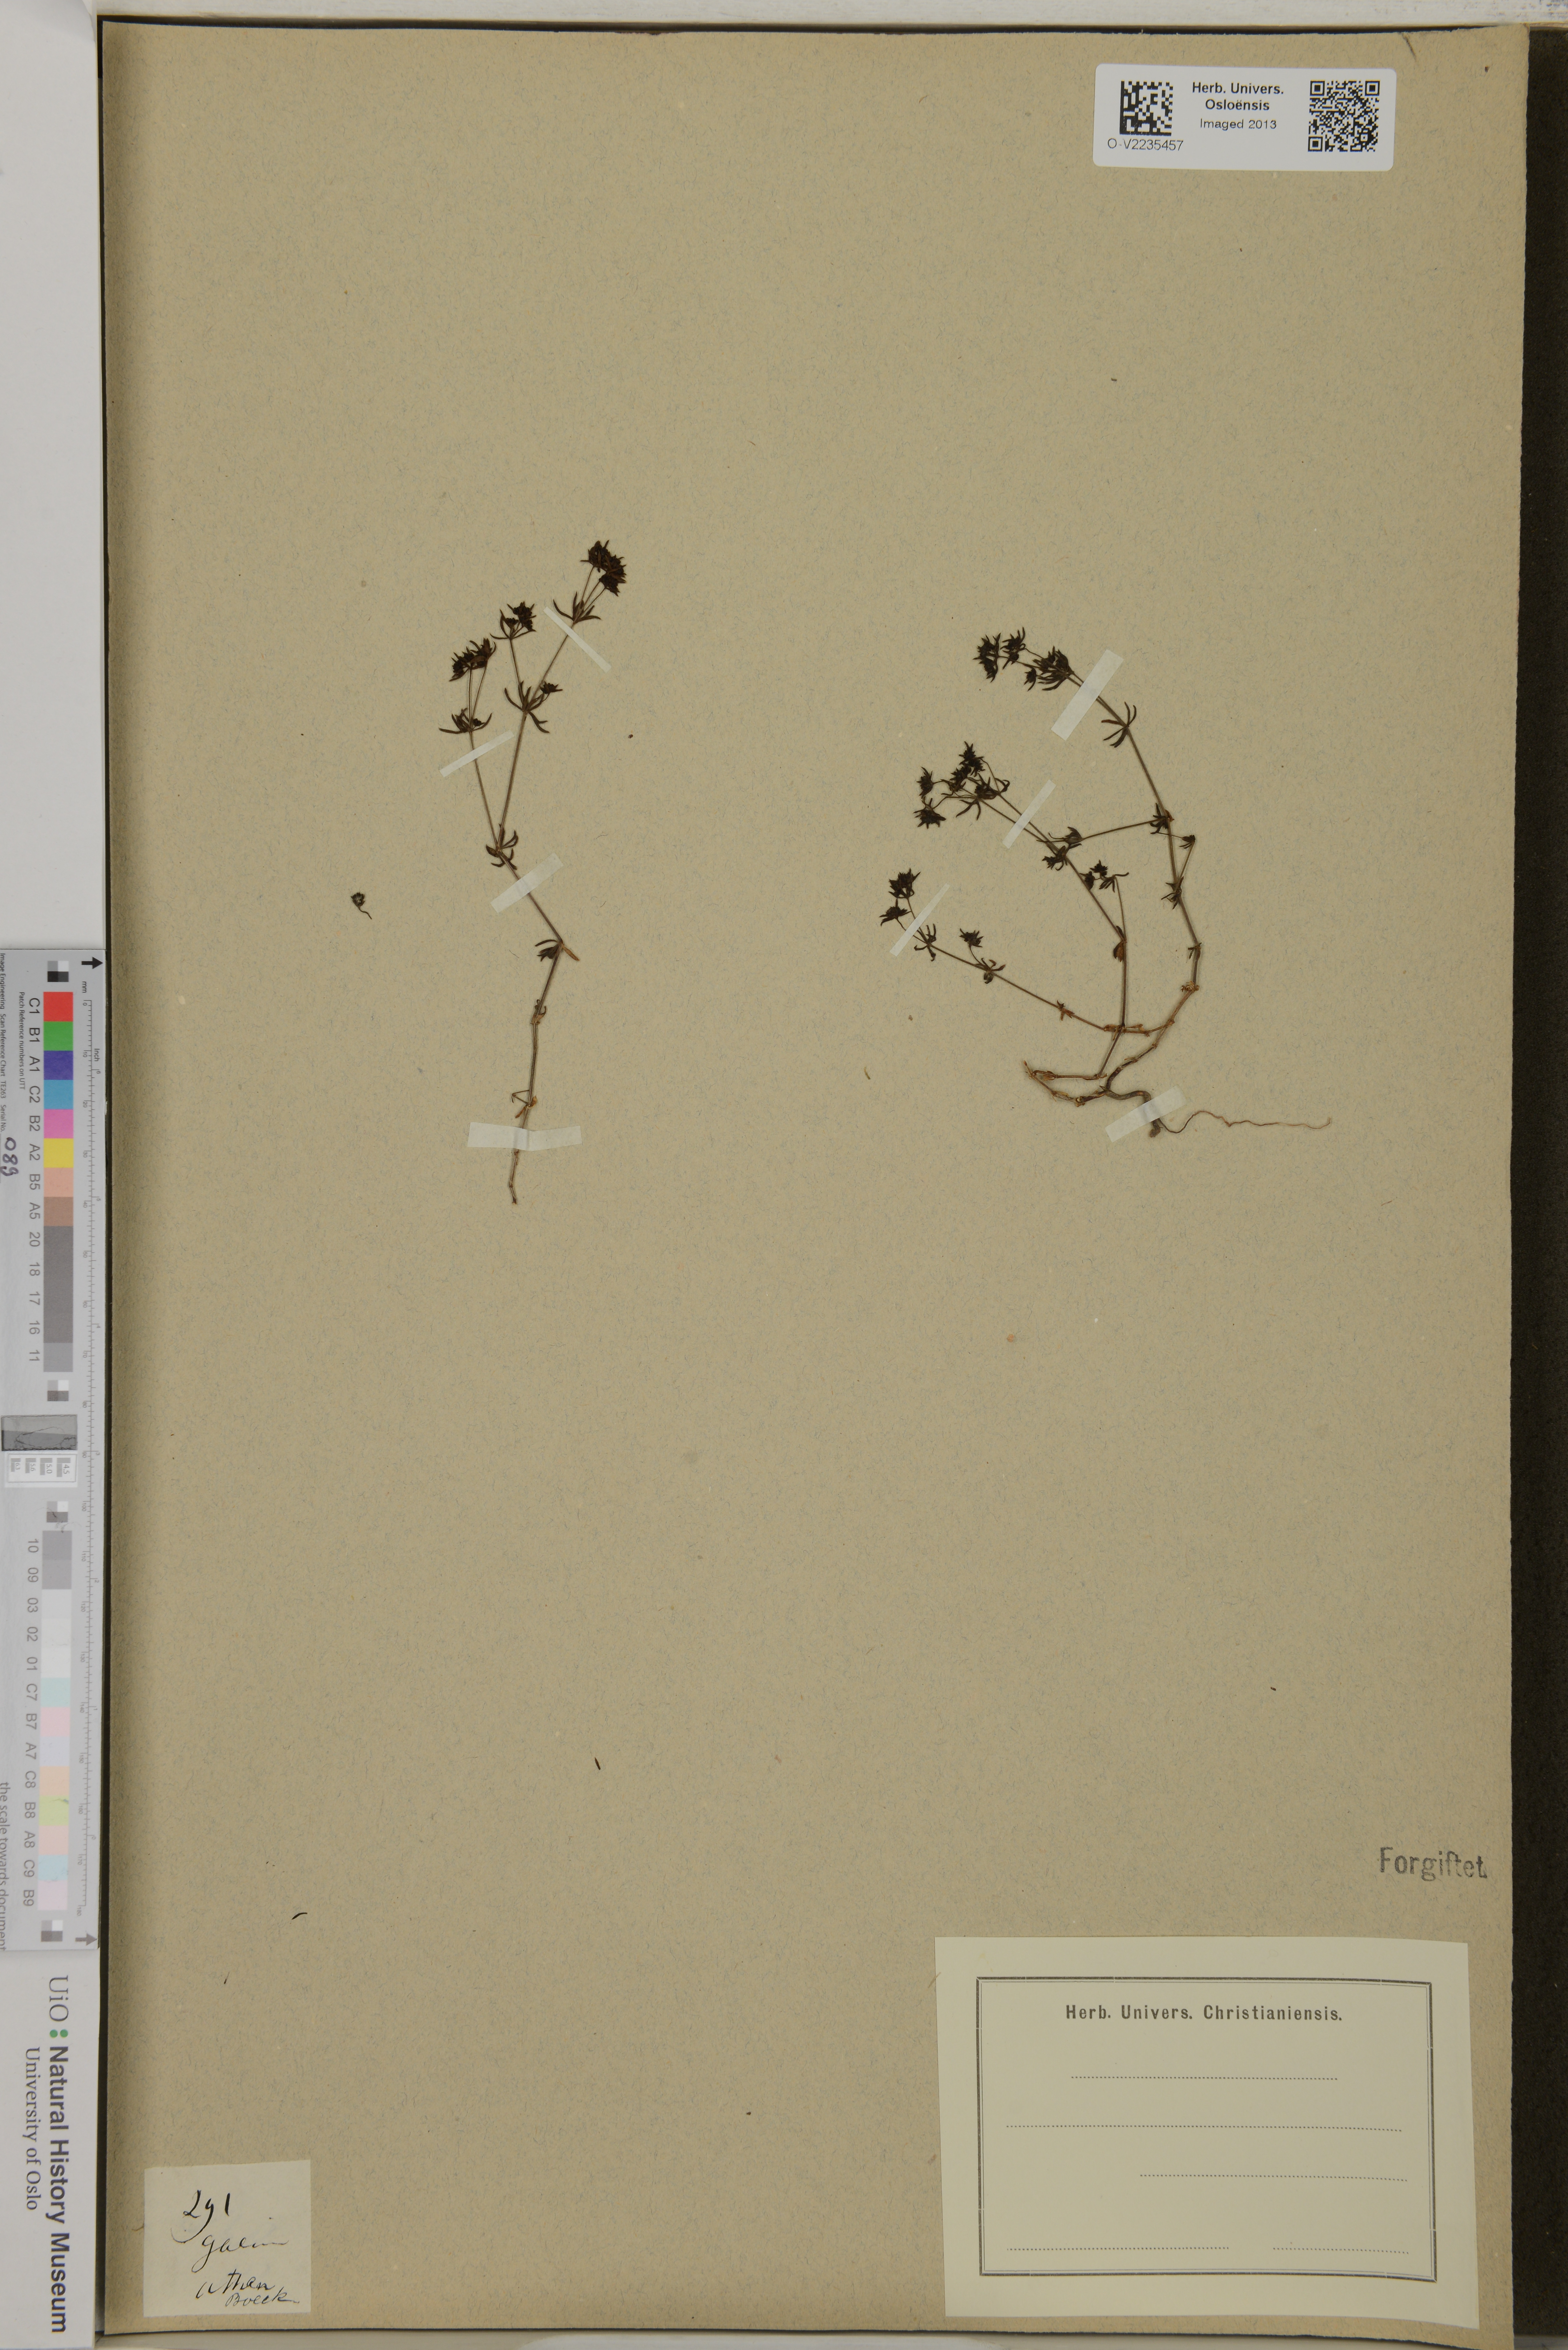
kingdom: Plantae
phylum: Tracheophyta
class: Magnoliopsida
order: Gentianales
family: Rubiaceae
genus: Galium
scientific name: Galium
